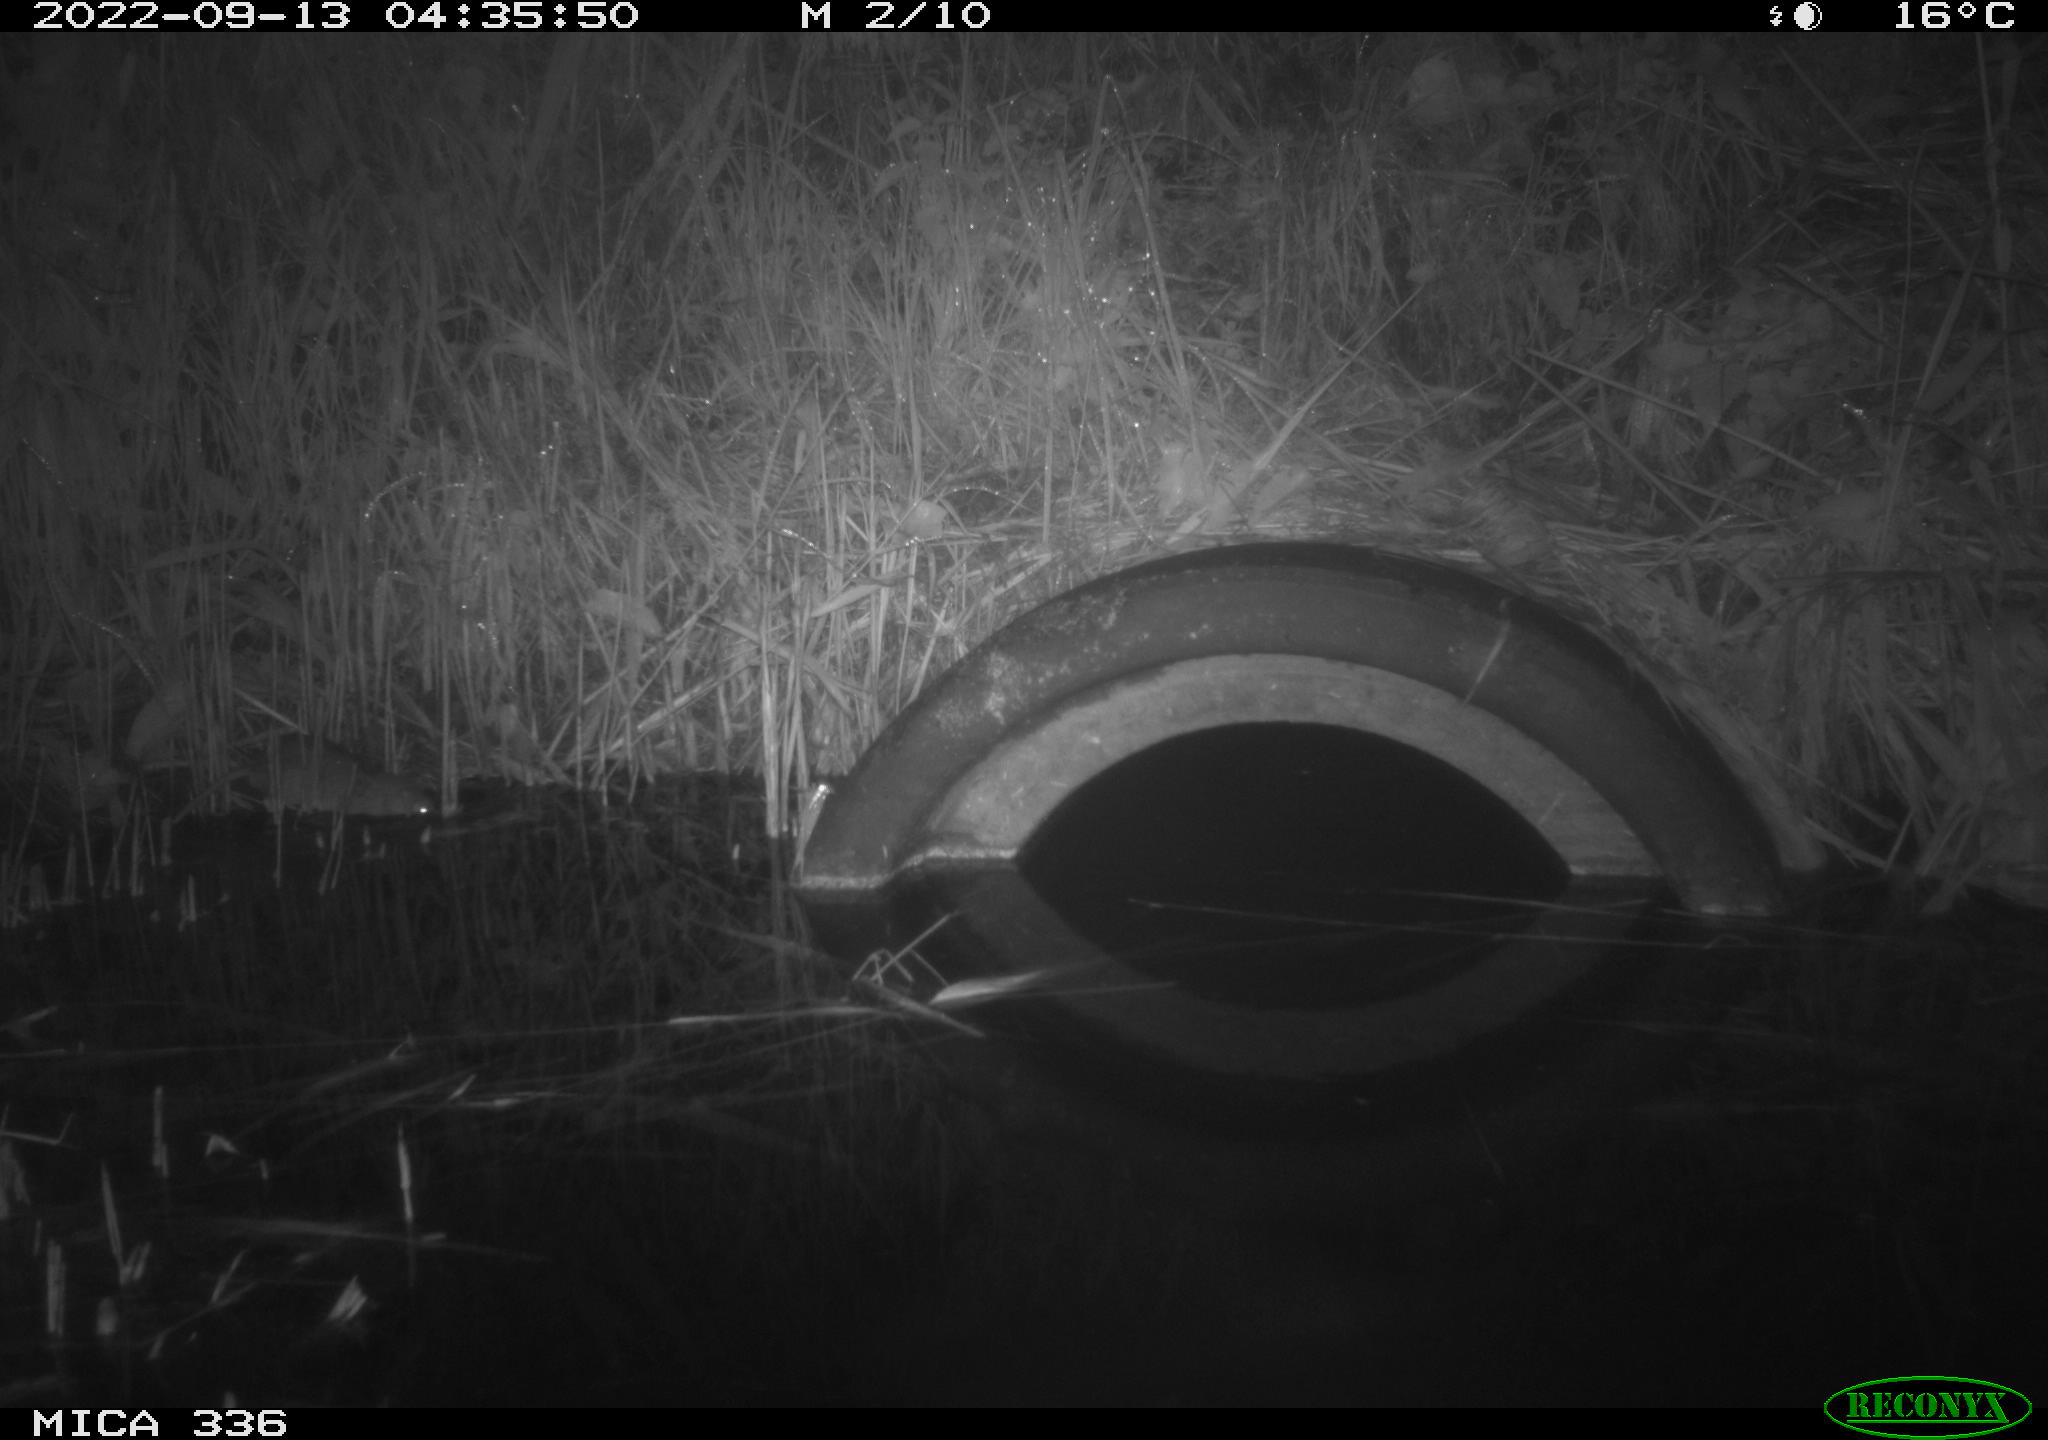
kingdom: Animalia
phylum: Chordata
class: Mammalia
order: Rodentia
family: Muridae
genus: Rattus
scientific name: Rattus norvegicus
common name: Brown rat
